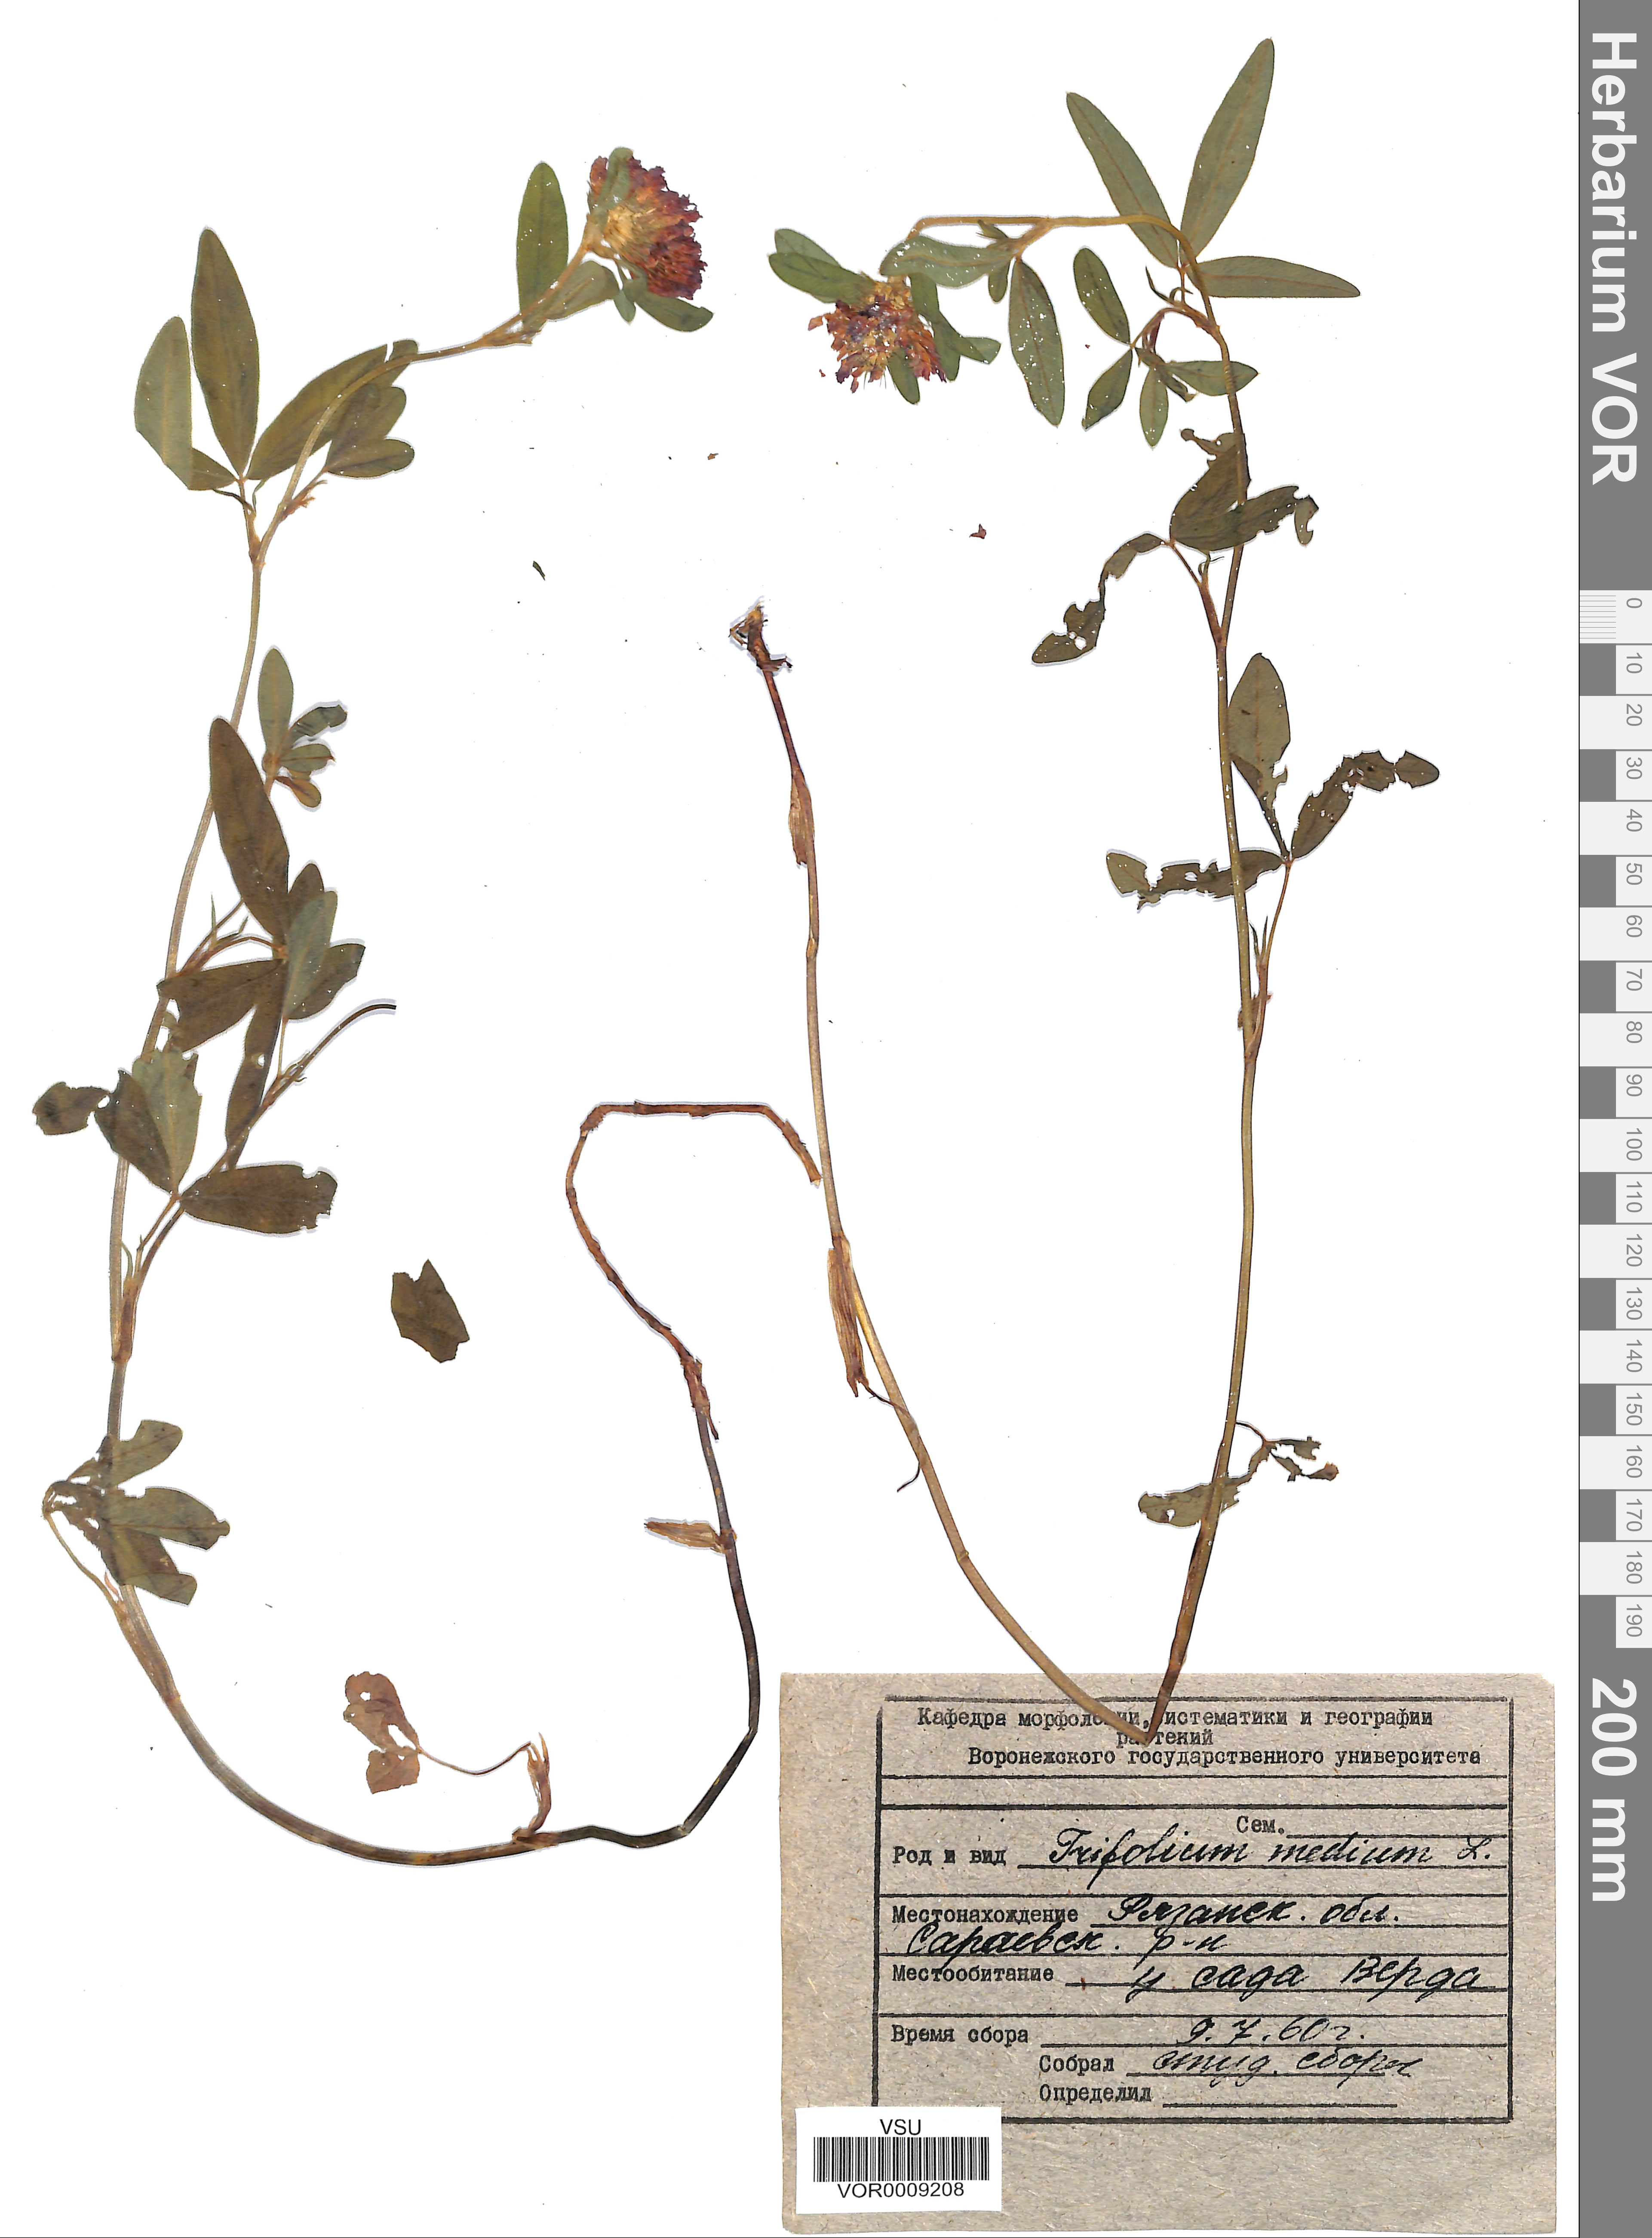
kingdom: Plantae
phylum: Tracheophyta
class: Magnoliopsida
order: Fabales
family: Fabaceae
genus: Trifolium
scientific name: Trifolium medium
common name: Zigzag clover
